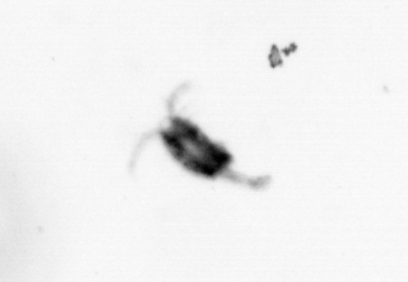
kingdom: Animalia
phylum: Arthropoda
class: Copepoda
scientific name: Copepoda
